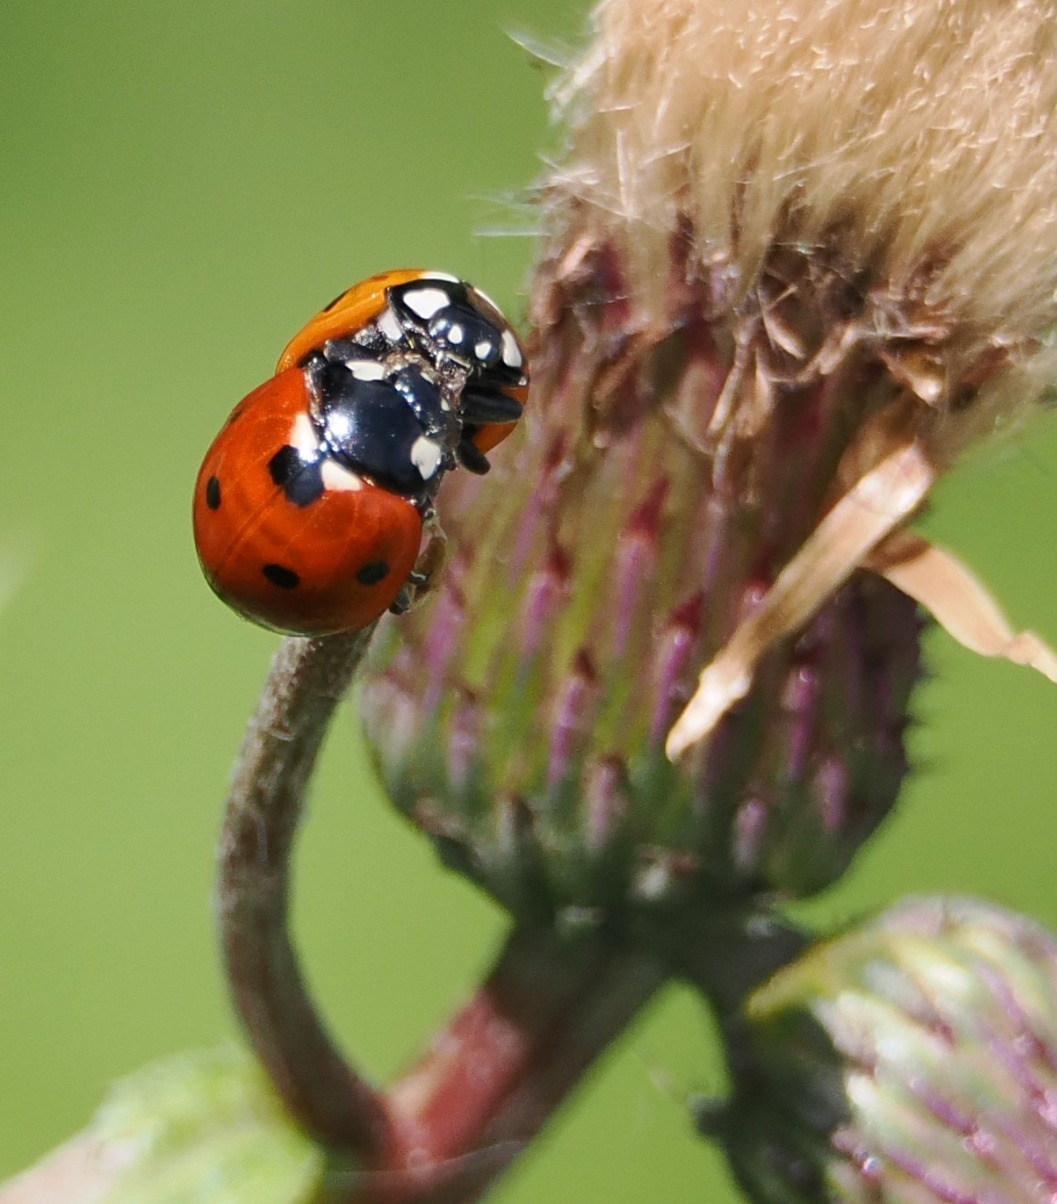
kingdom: Animalia
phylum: Arthropoda
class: Insecta
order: Coleoptera
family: Coccinellidae
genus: Coccinella
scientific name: Coccinella septempunctata
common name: Syvplettet mariehøne
